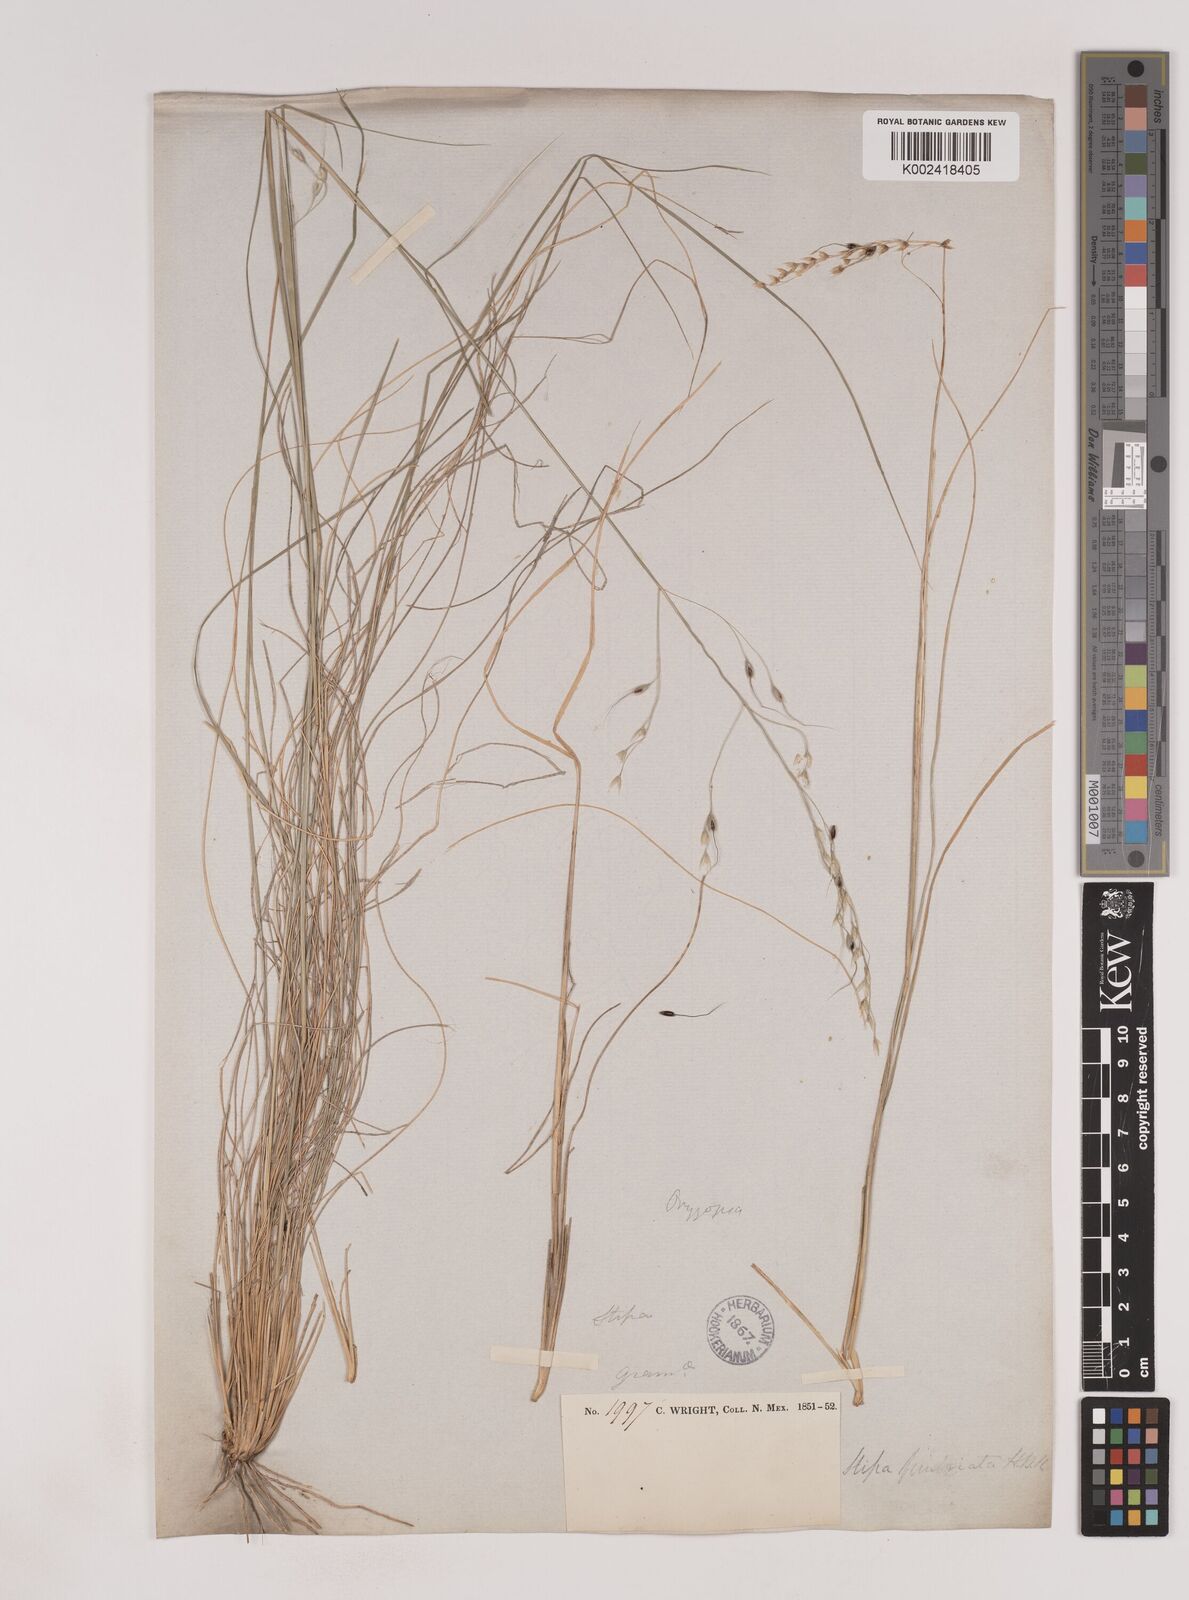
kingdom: Plantae
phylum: Tracheophyta
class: Liliopsida
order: Poales
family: Poaceae
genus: Piptochaetium
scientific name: Piptochaetium fimbriatum
